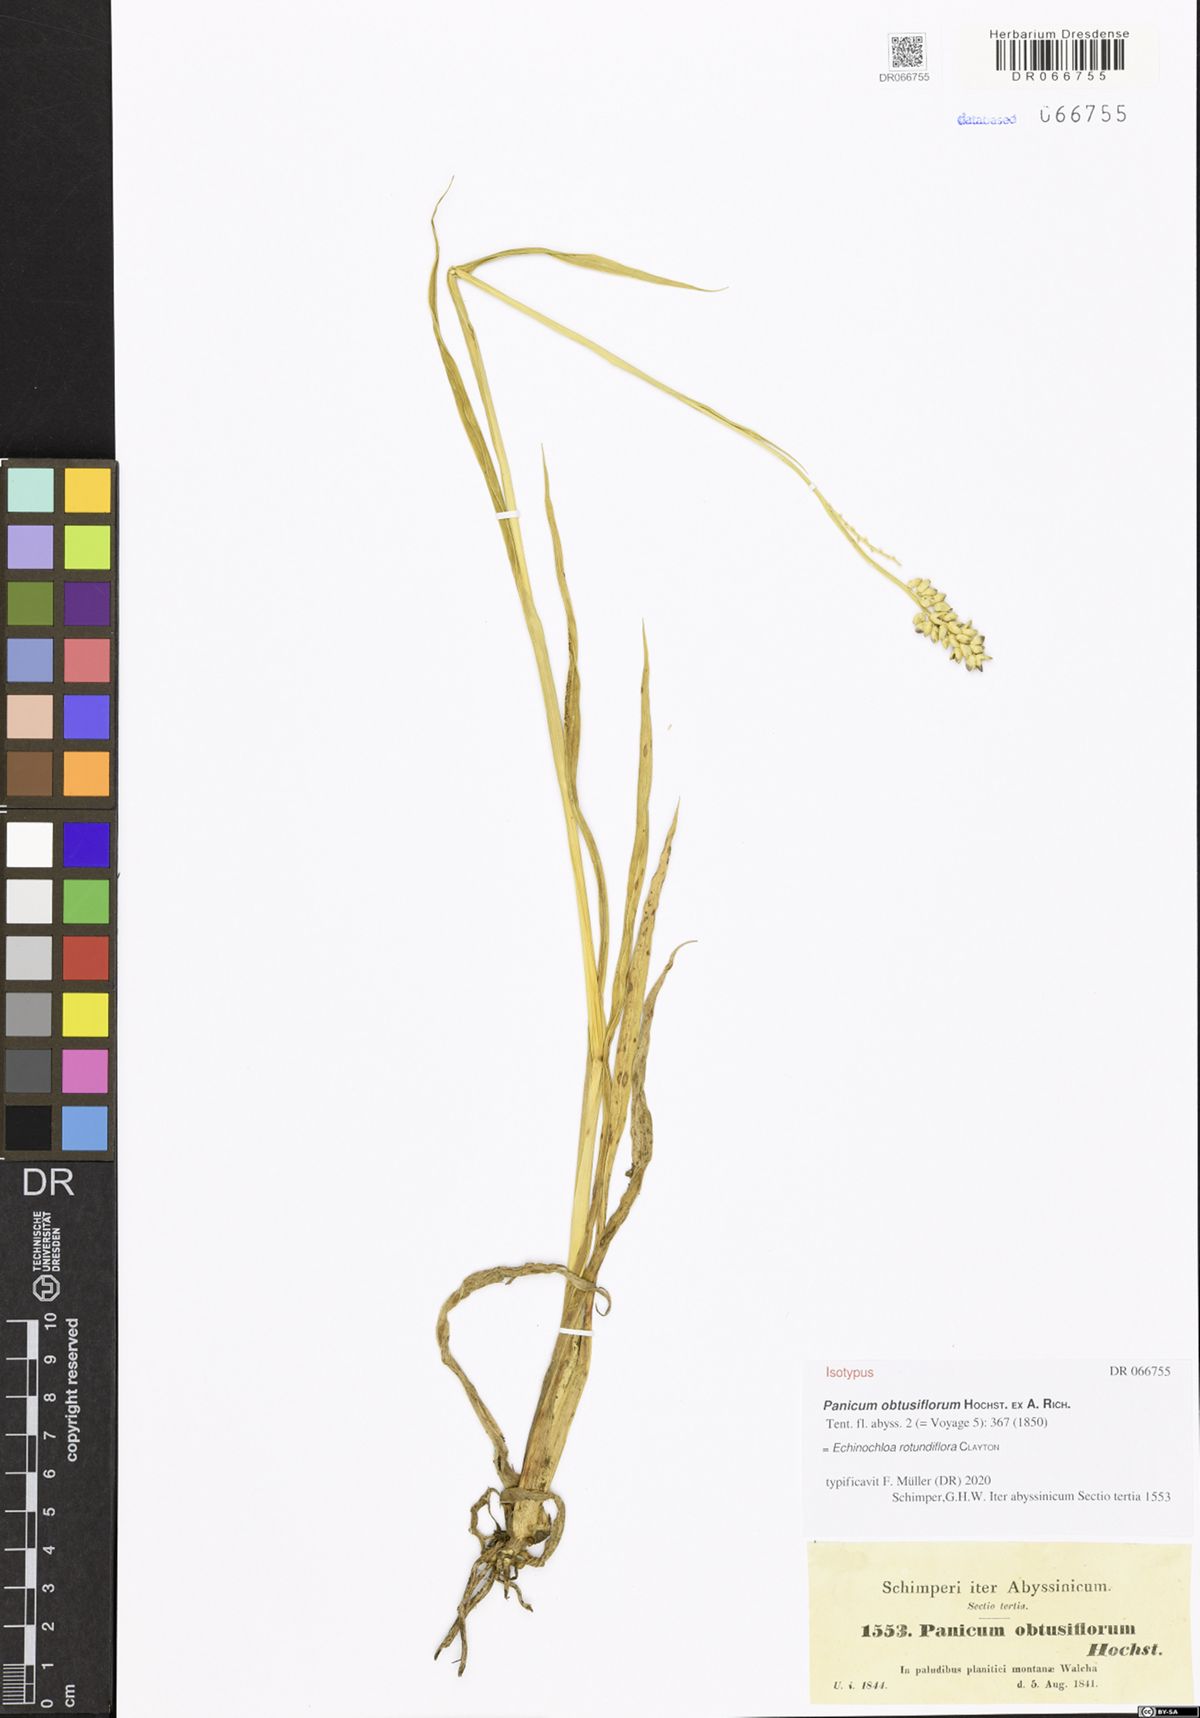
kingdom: Plantae
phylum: Tracheophyta
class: Liliopsida
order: Poales
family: Poaceae
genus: Echinochloa
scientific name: Echinochloa rotundiflora
